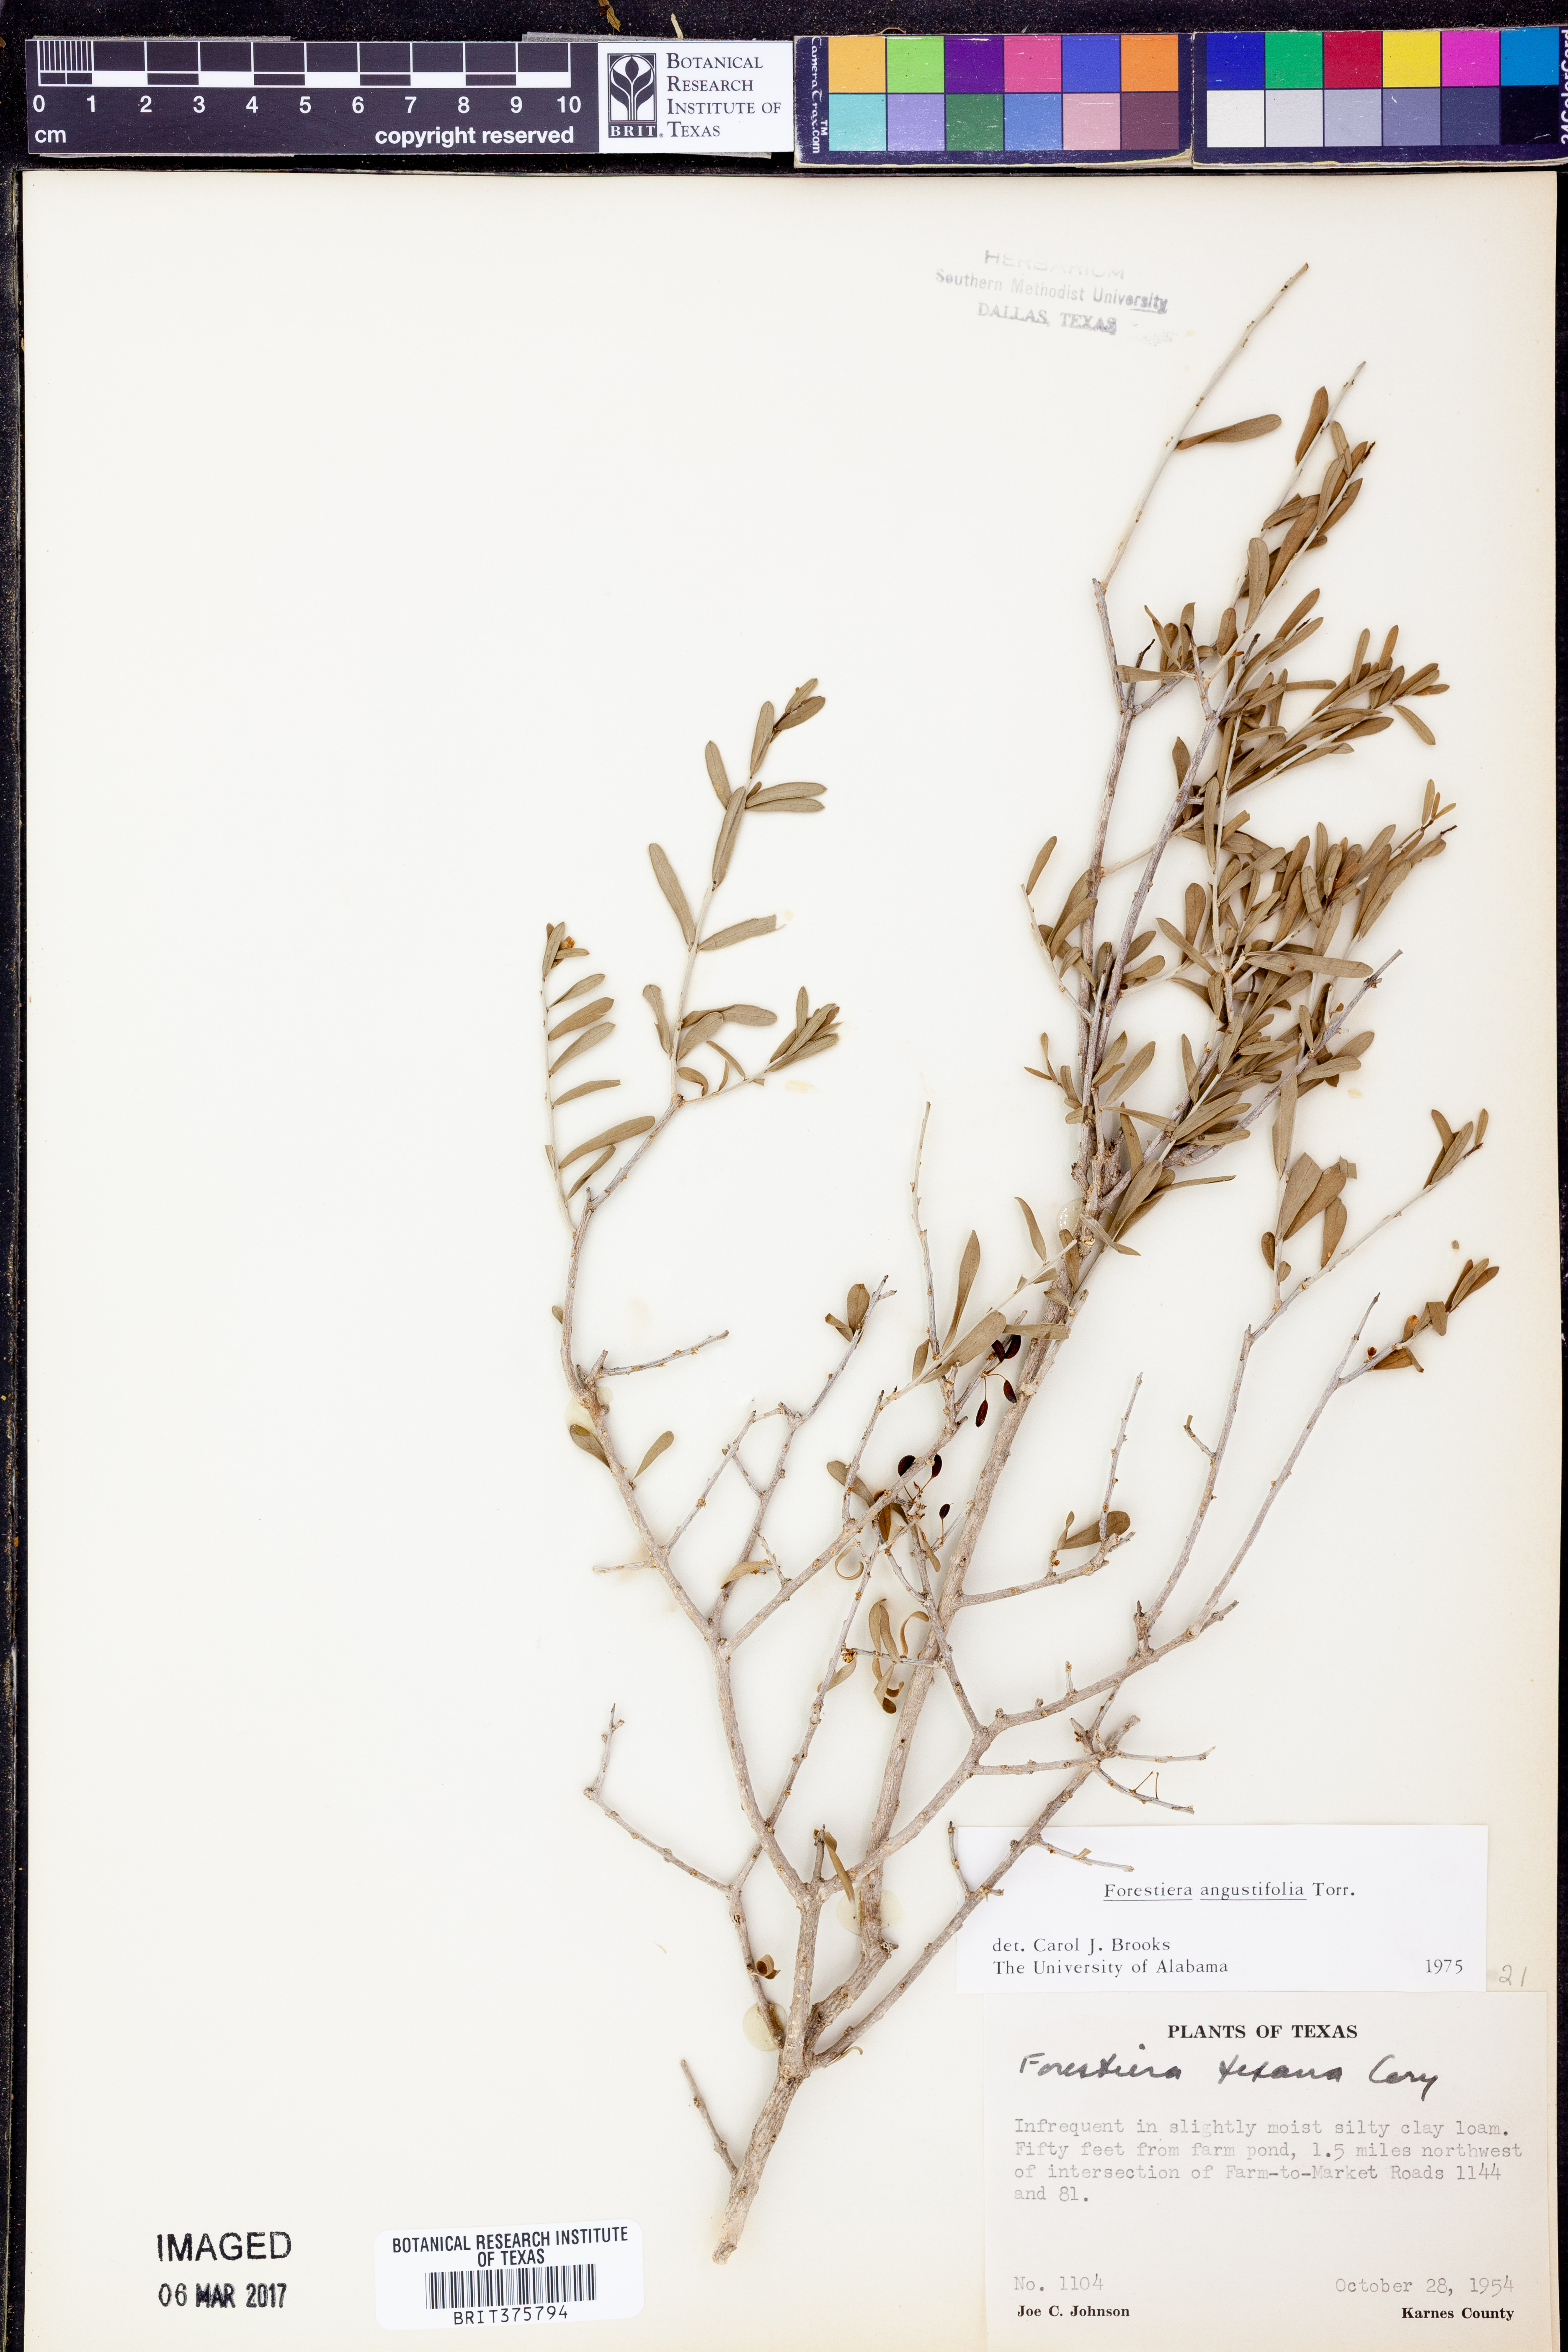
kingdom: Plantae
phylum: Tracheophyta
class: Magnoliopsida
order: Lamiales
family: Oleaceae
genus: Forestiera
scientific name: Forestiera angustifolia
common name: Elbowbush
